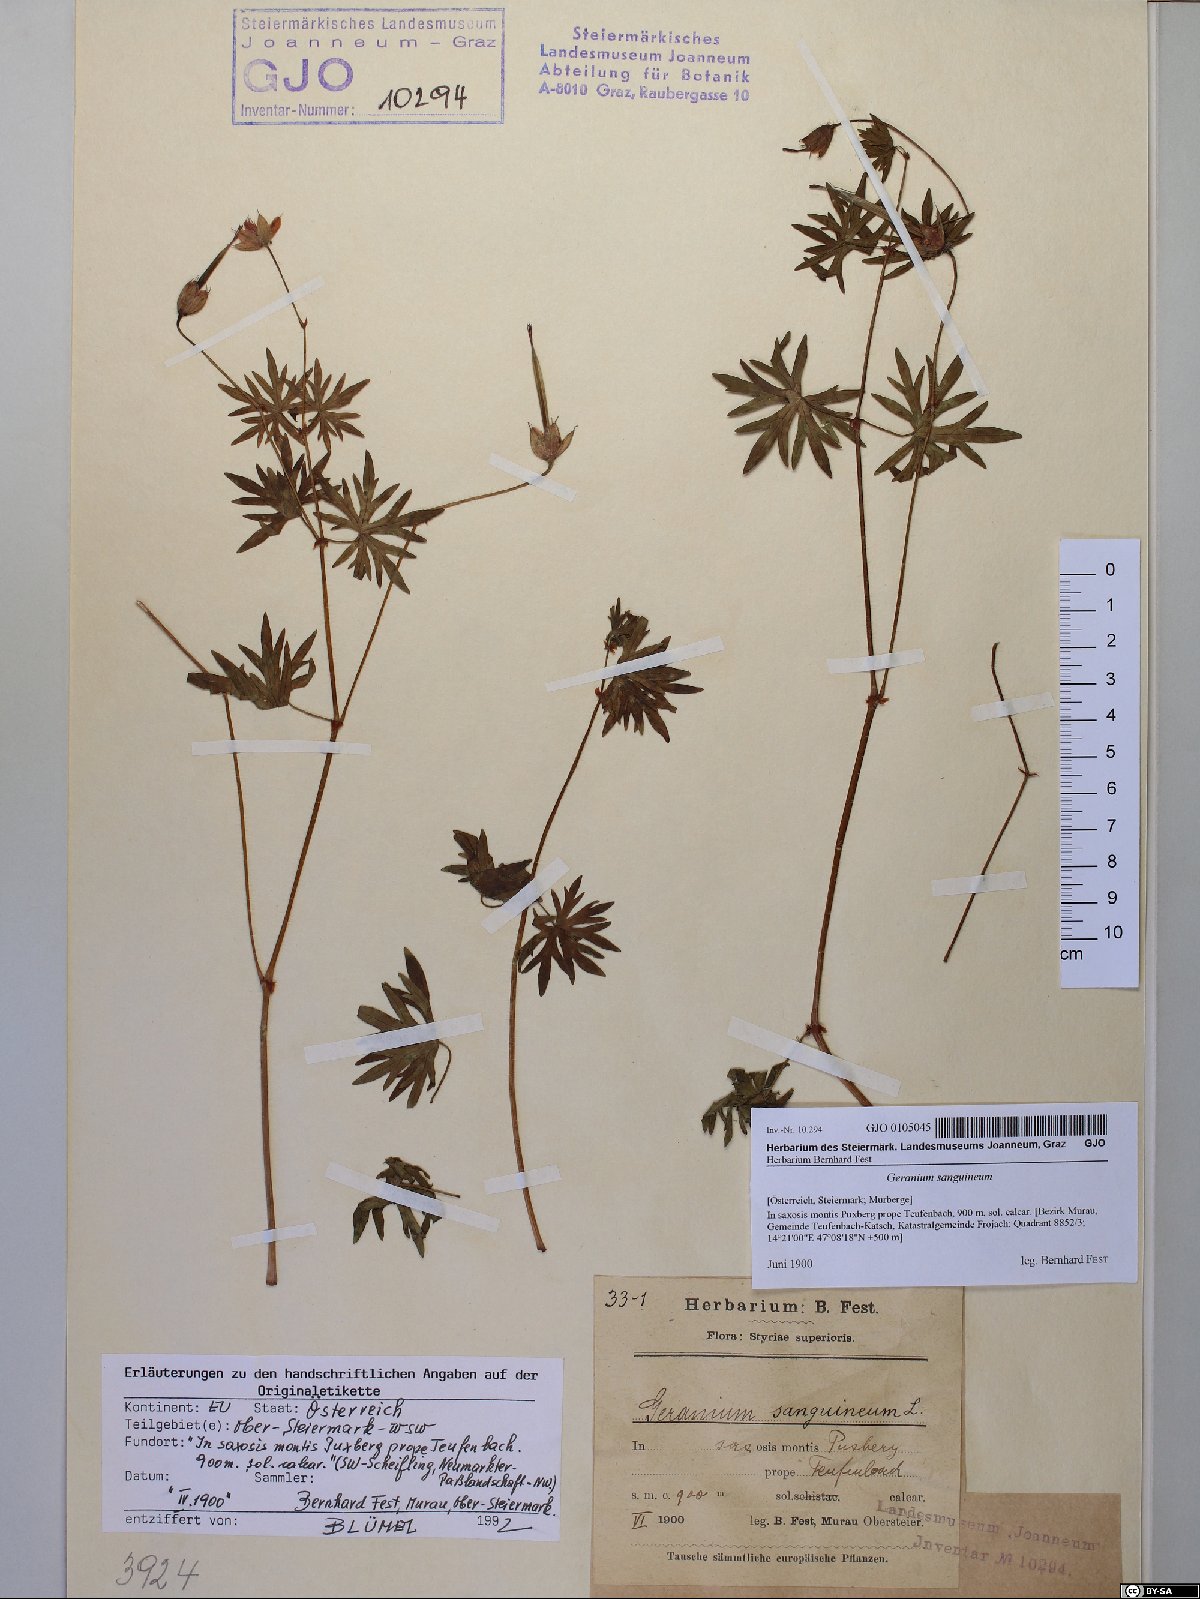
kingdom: Plantae
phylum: Tracheophyta
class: Magnoliopsida
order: Geraniales
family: Geraniaceae
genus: Geranium
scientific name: Geranium sanguineum
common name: Bloody crane's-bill
